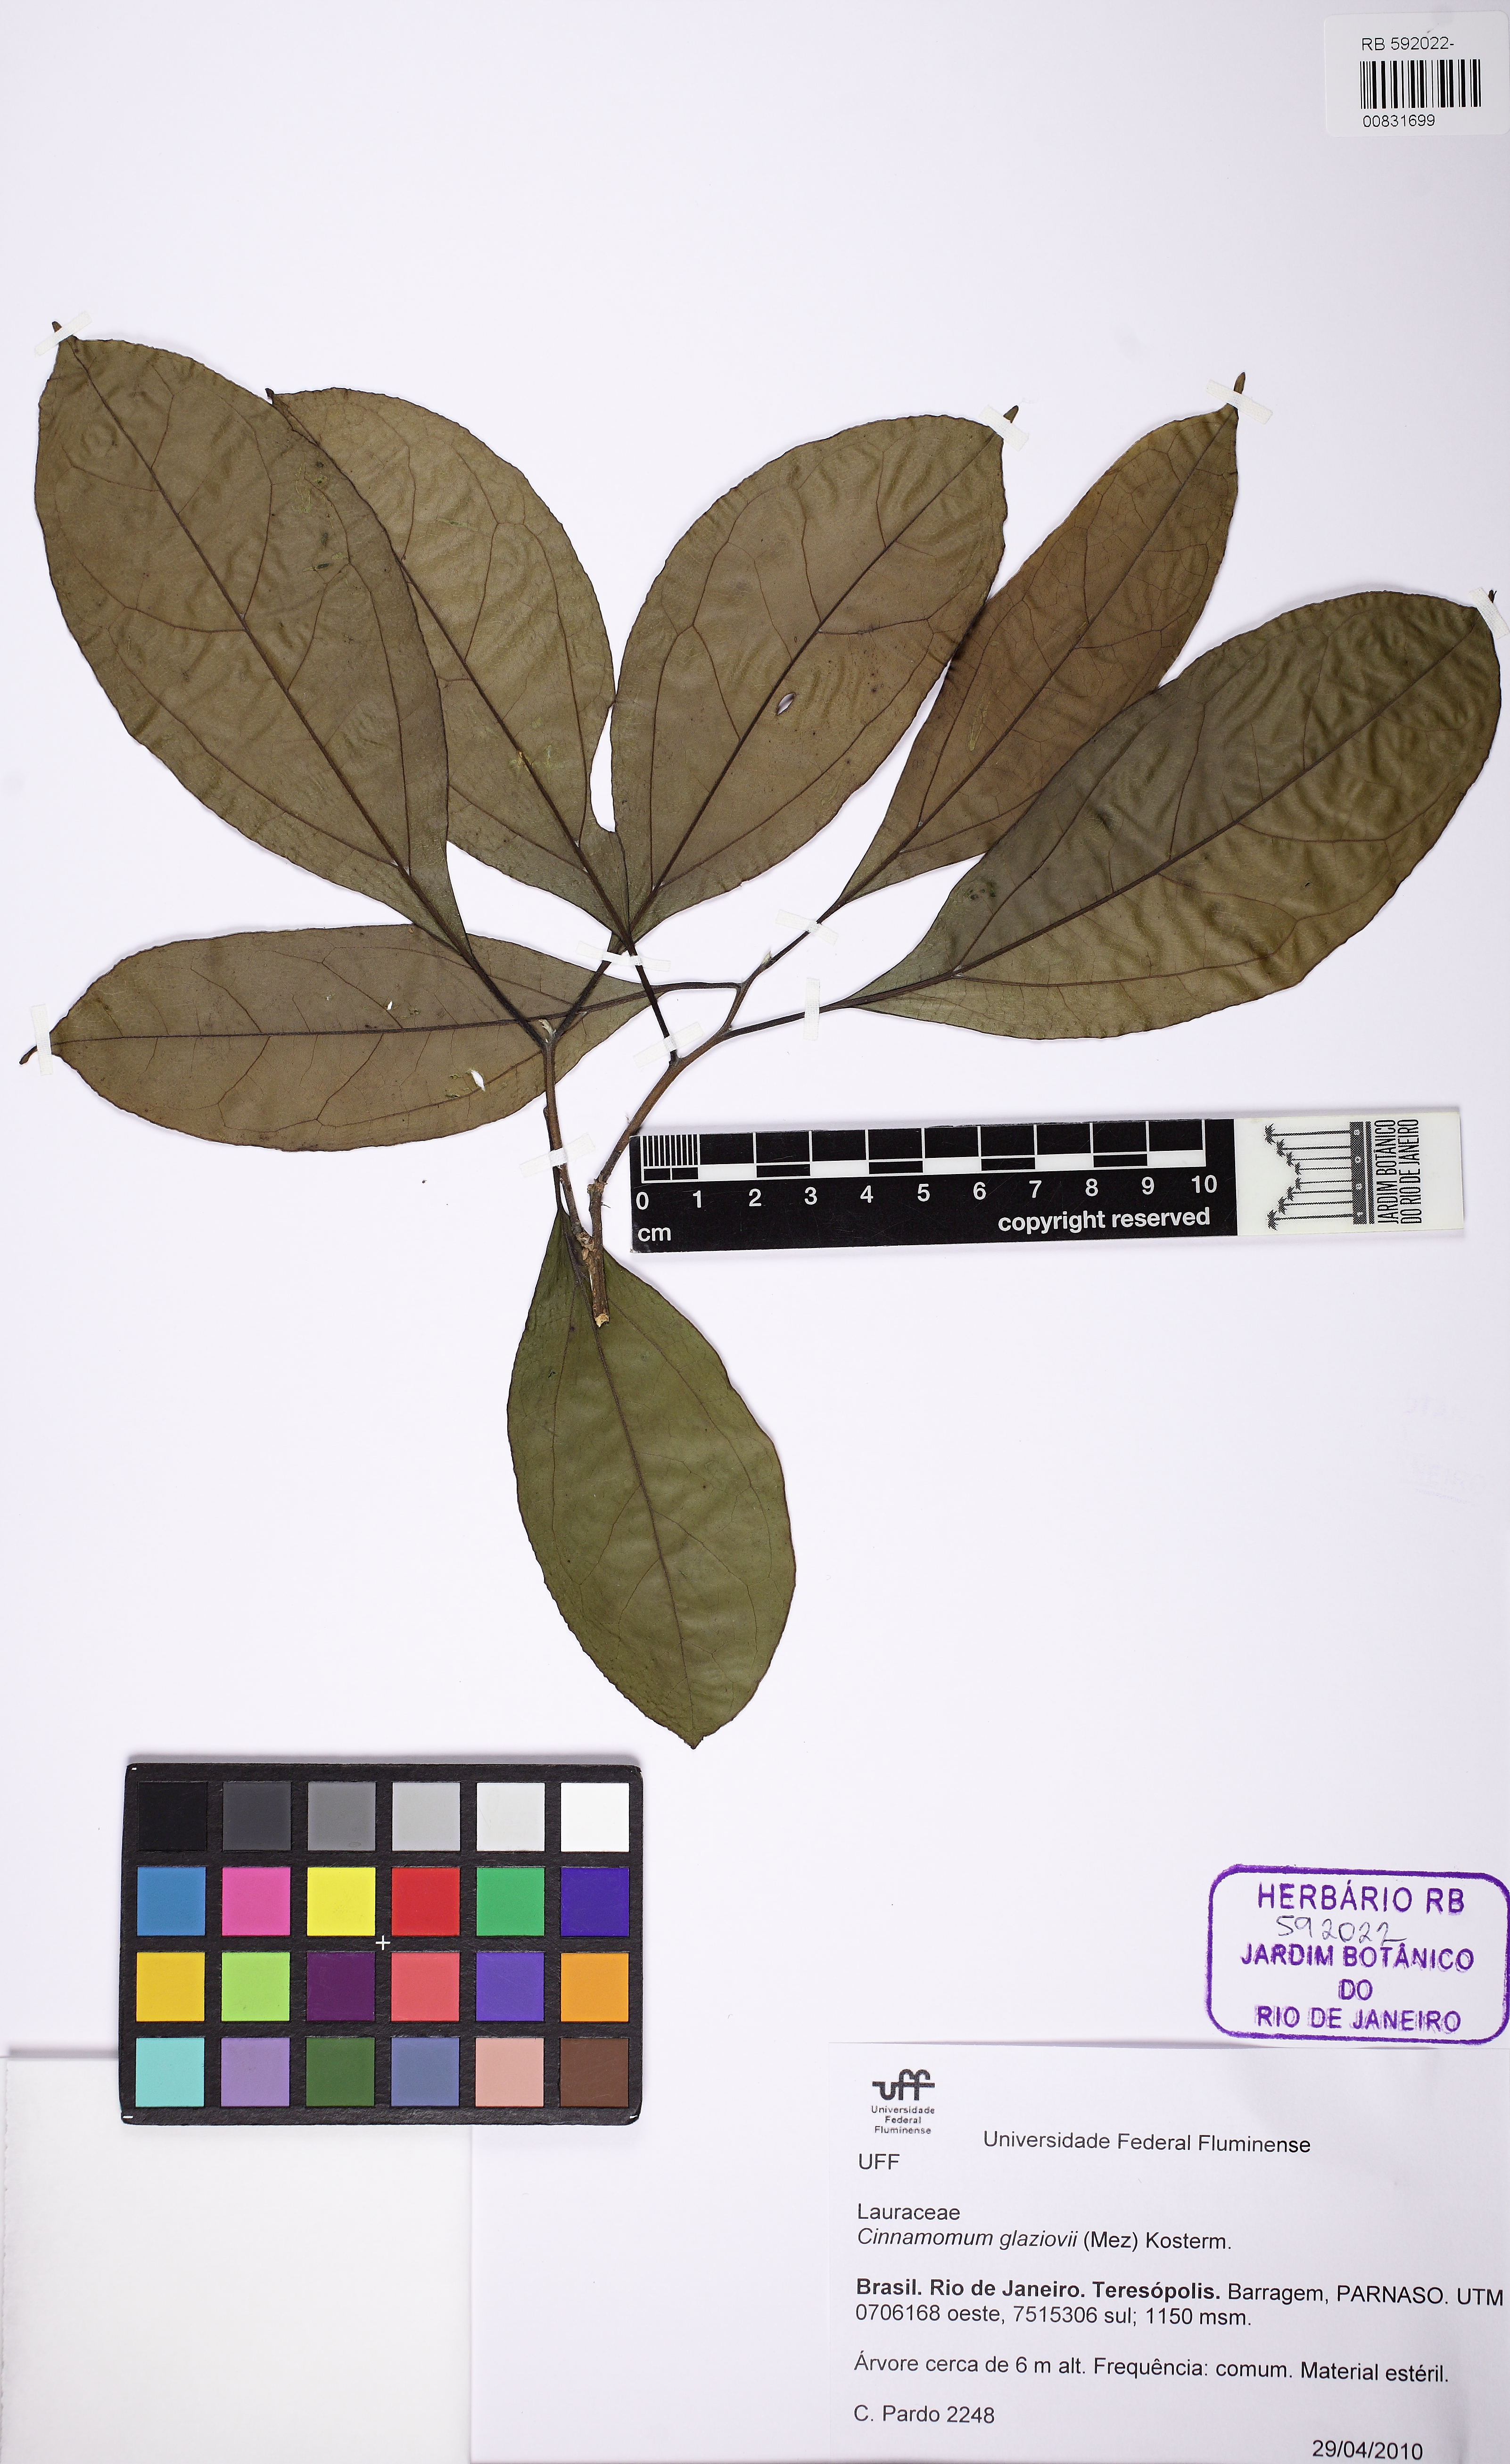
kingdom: Plantae
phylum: Tracheophyta
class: Magnoliopsida
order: Laurales
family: Lauraceae
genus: Aiouea
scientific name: Aiouea glaziovii
